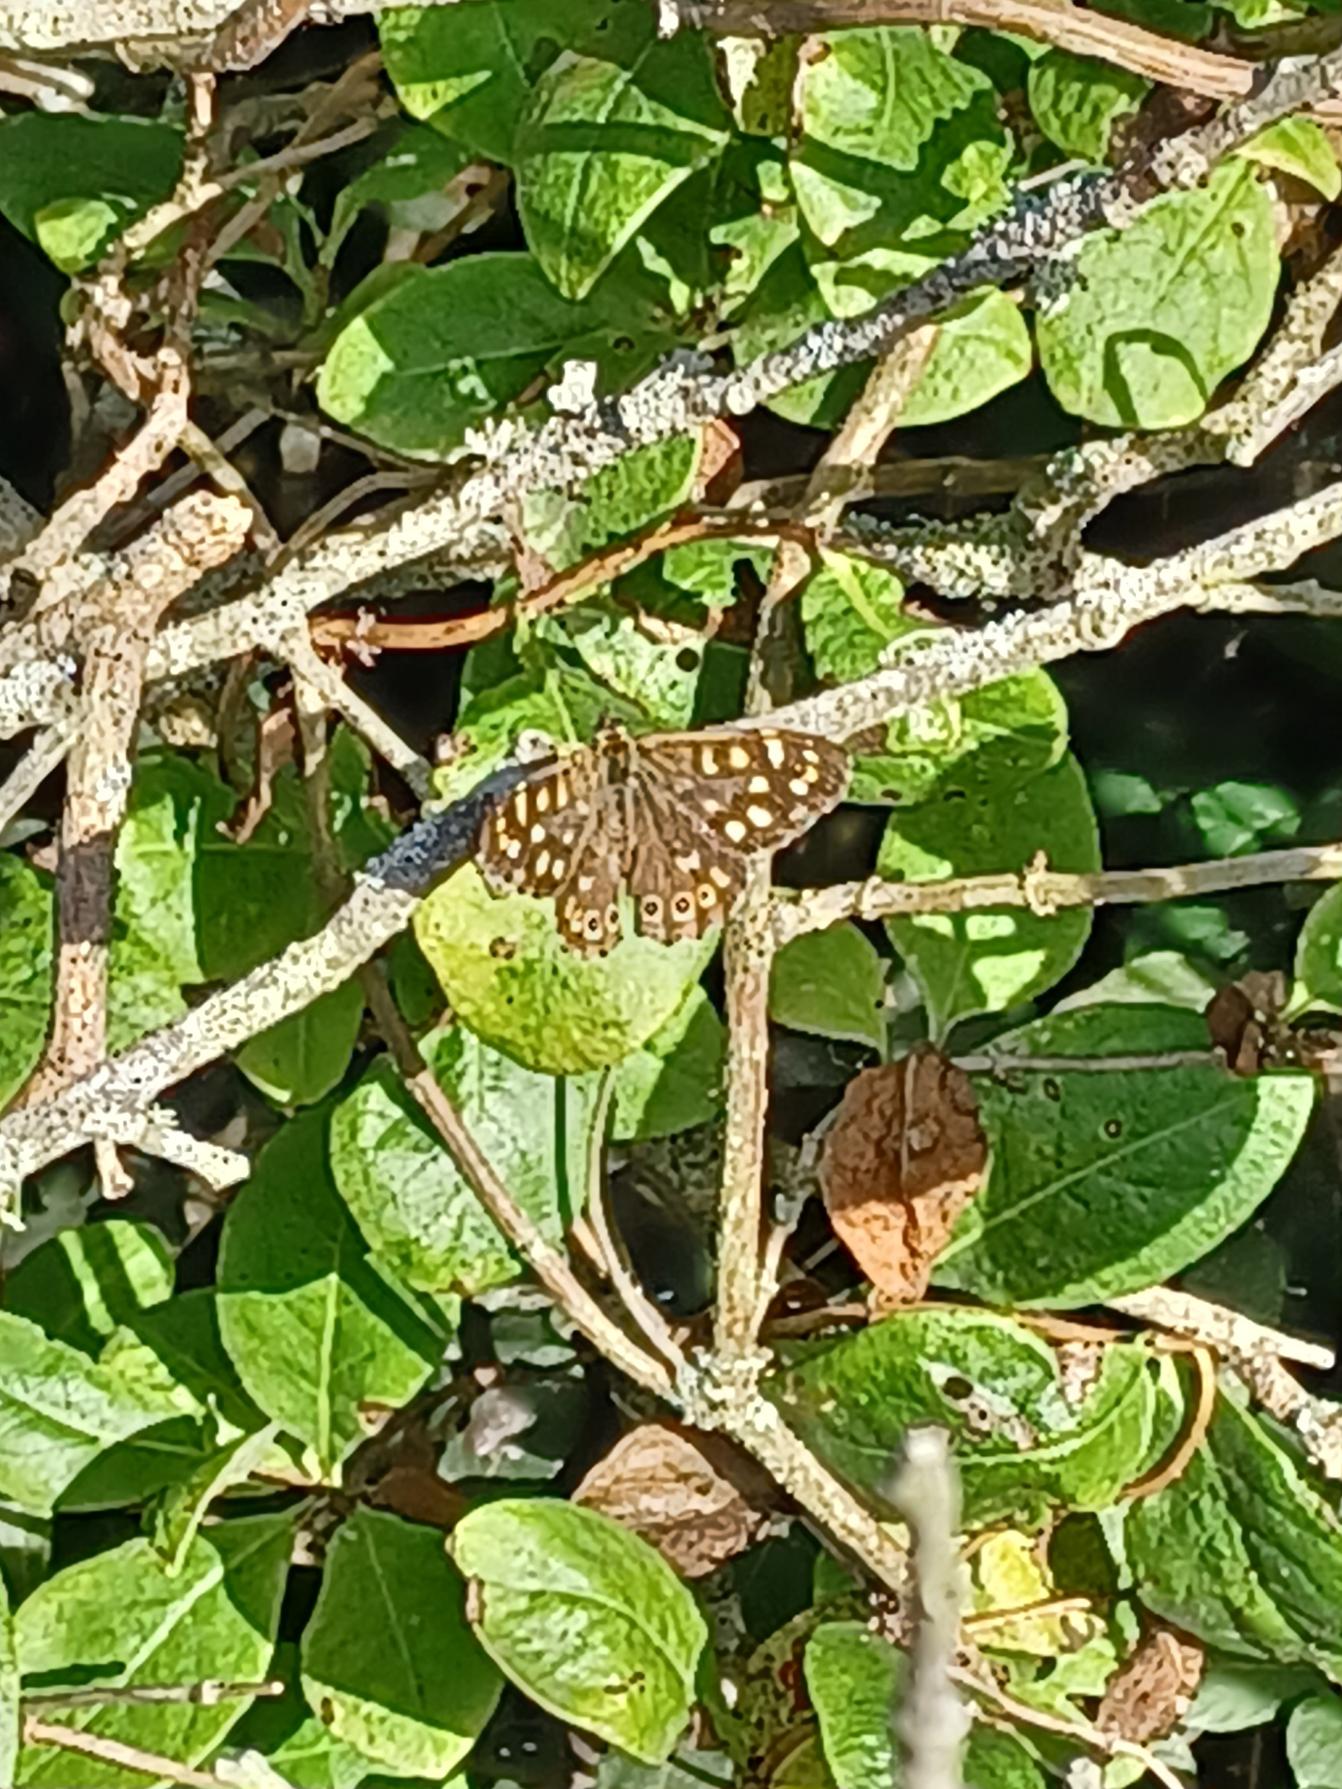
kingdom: Animalia
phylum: Arthropoda
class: Insecta
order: Lepidoptera
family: Nymphalidae
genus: Pararge
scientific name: Pararge aegeria
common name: Skovrandøje
